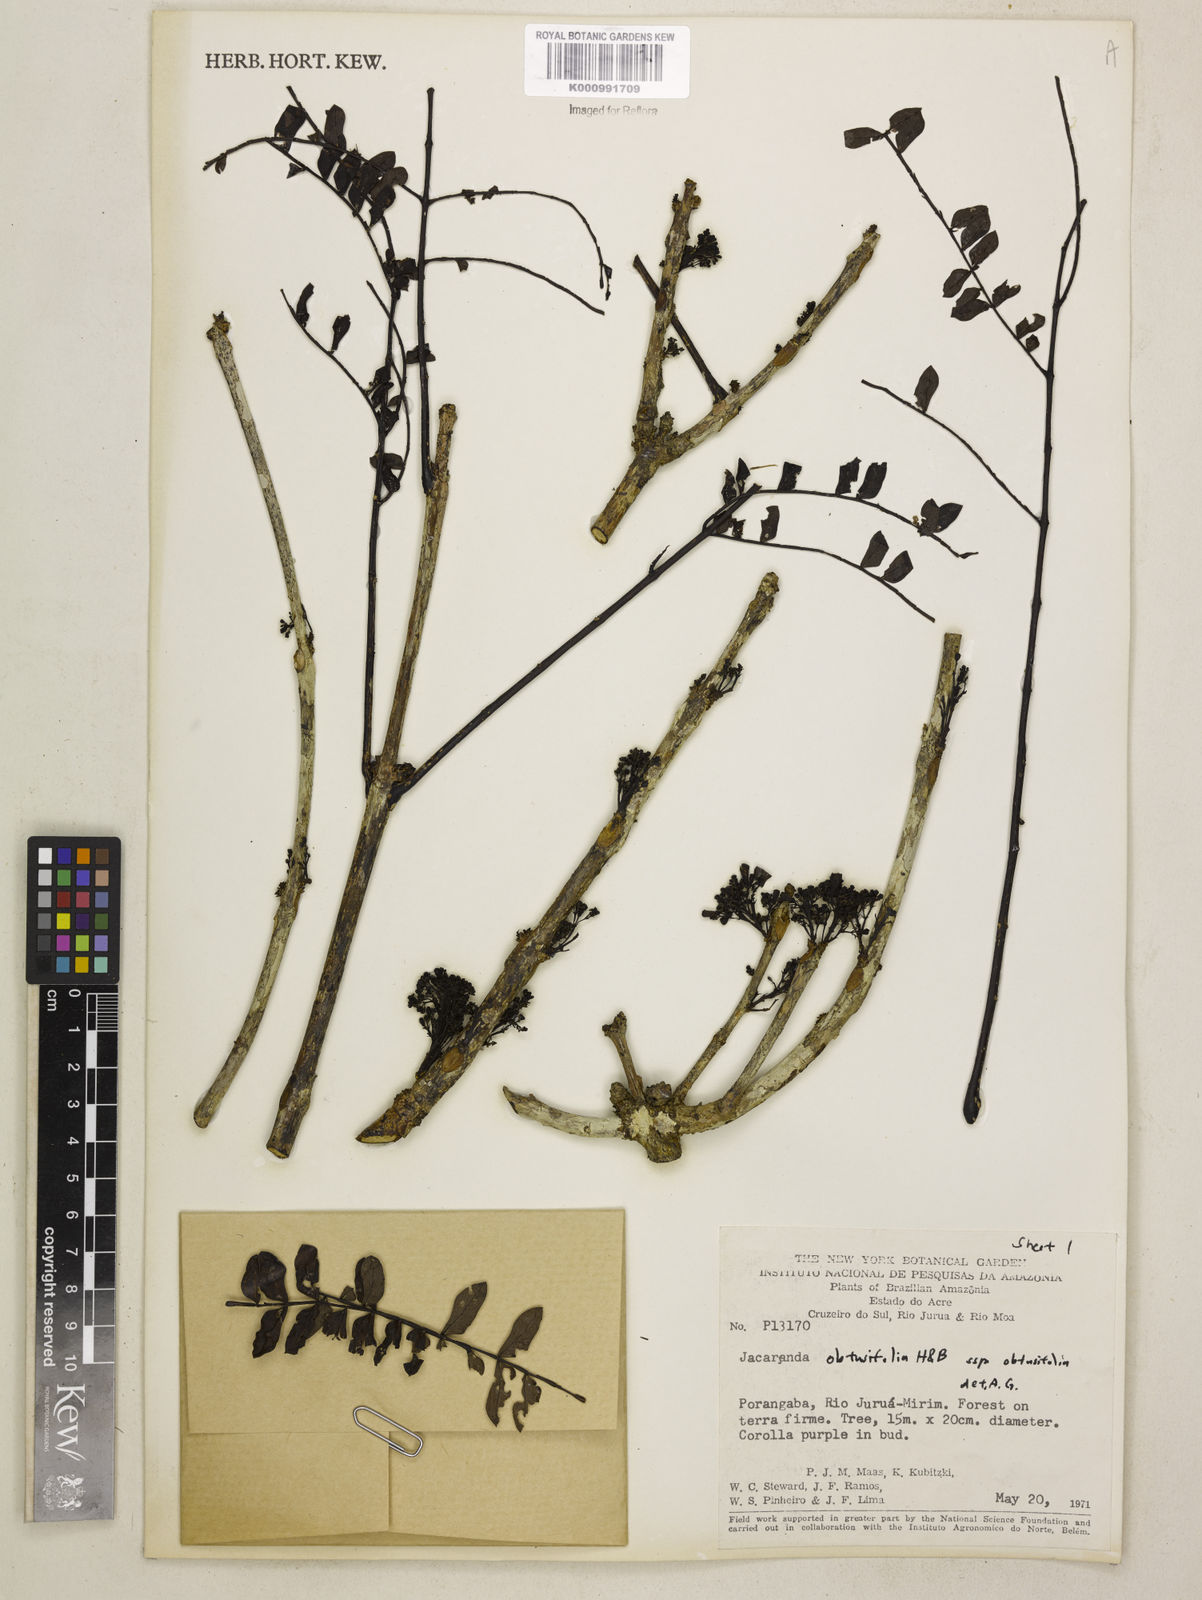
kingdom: Plantae
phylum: Tracheophyta
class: Magnoliopsida
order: Lamiales
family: Bignoniaceae
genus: Jacaranda
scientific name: Jacaranda obtusifolia
